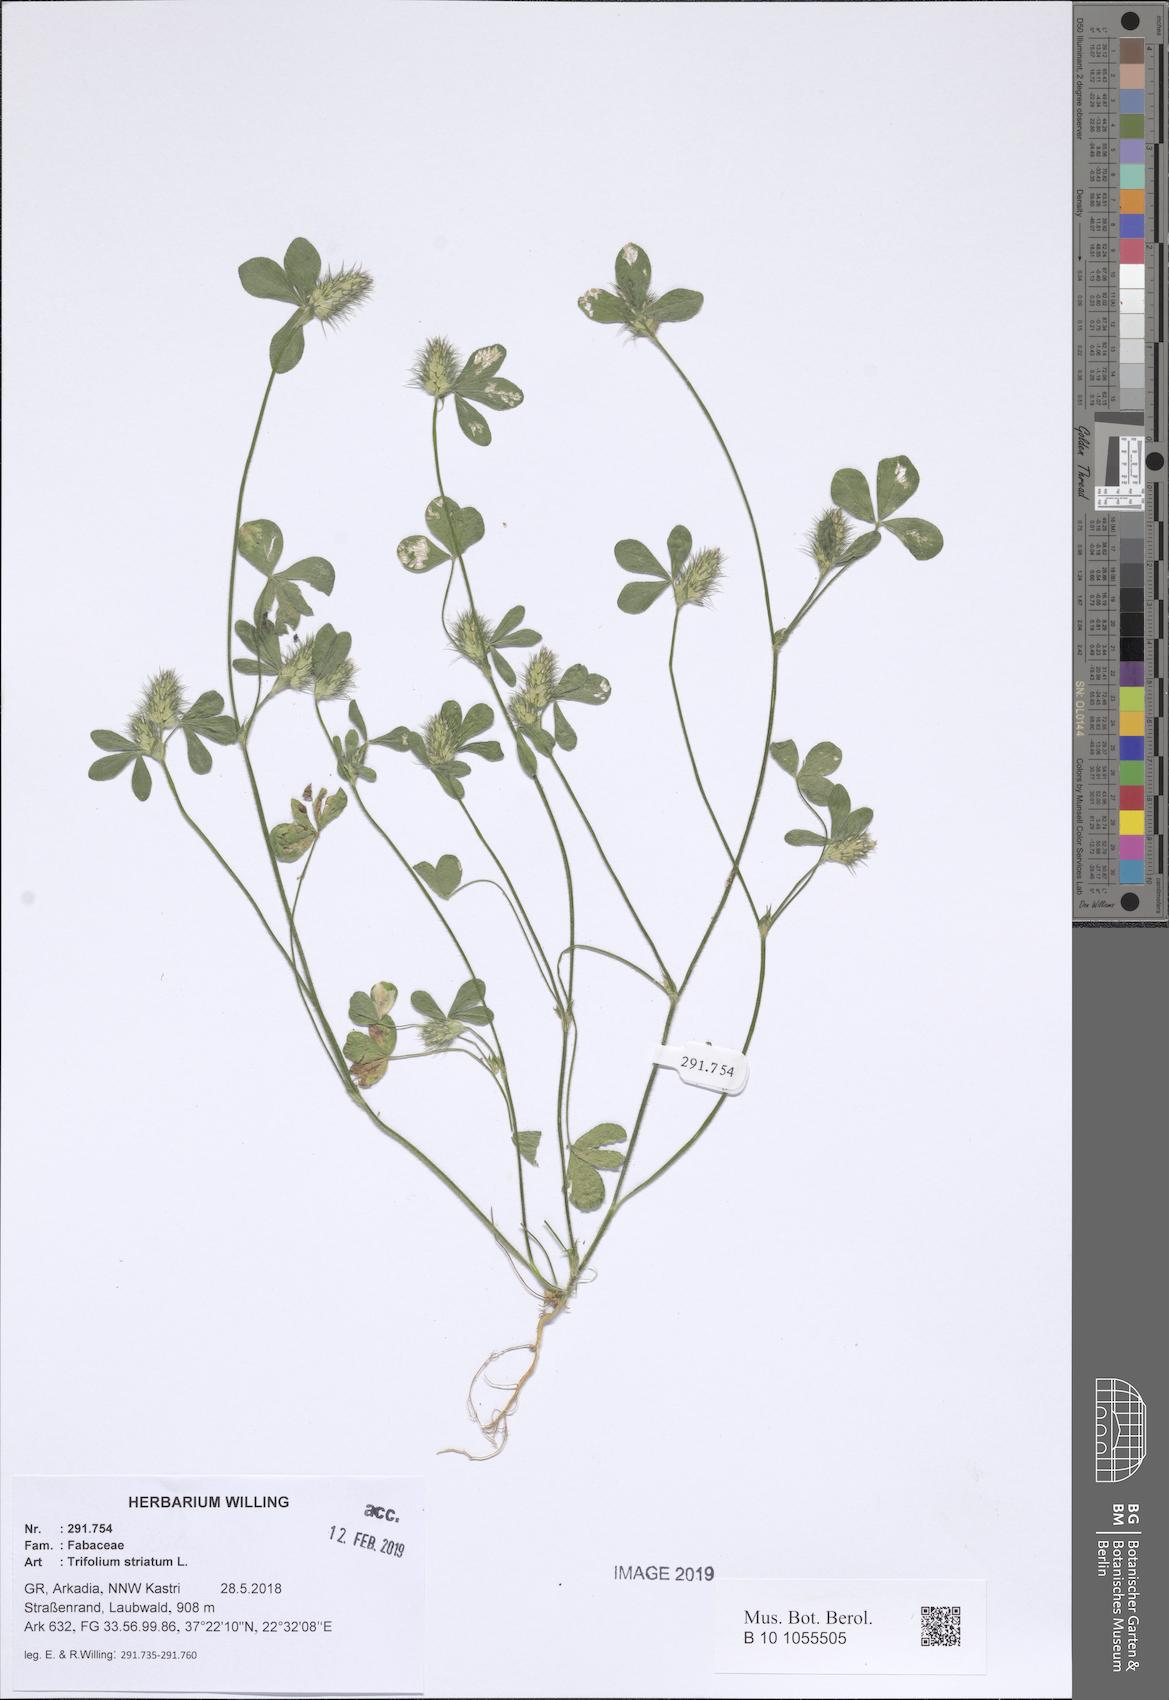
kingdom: Plantae
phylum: Tracheophyta
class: Magnoliopsida
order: Fabales
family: Fabaceae
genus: Trifolium
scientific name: Trifolium striatum
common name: Knotted clover
